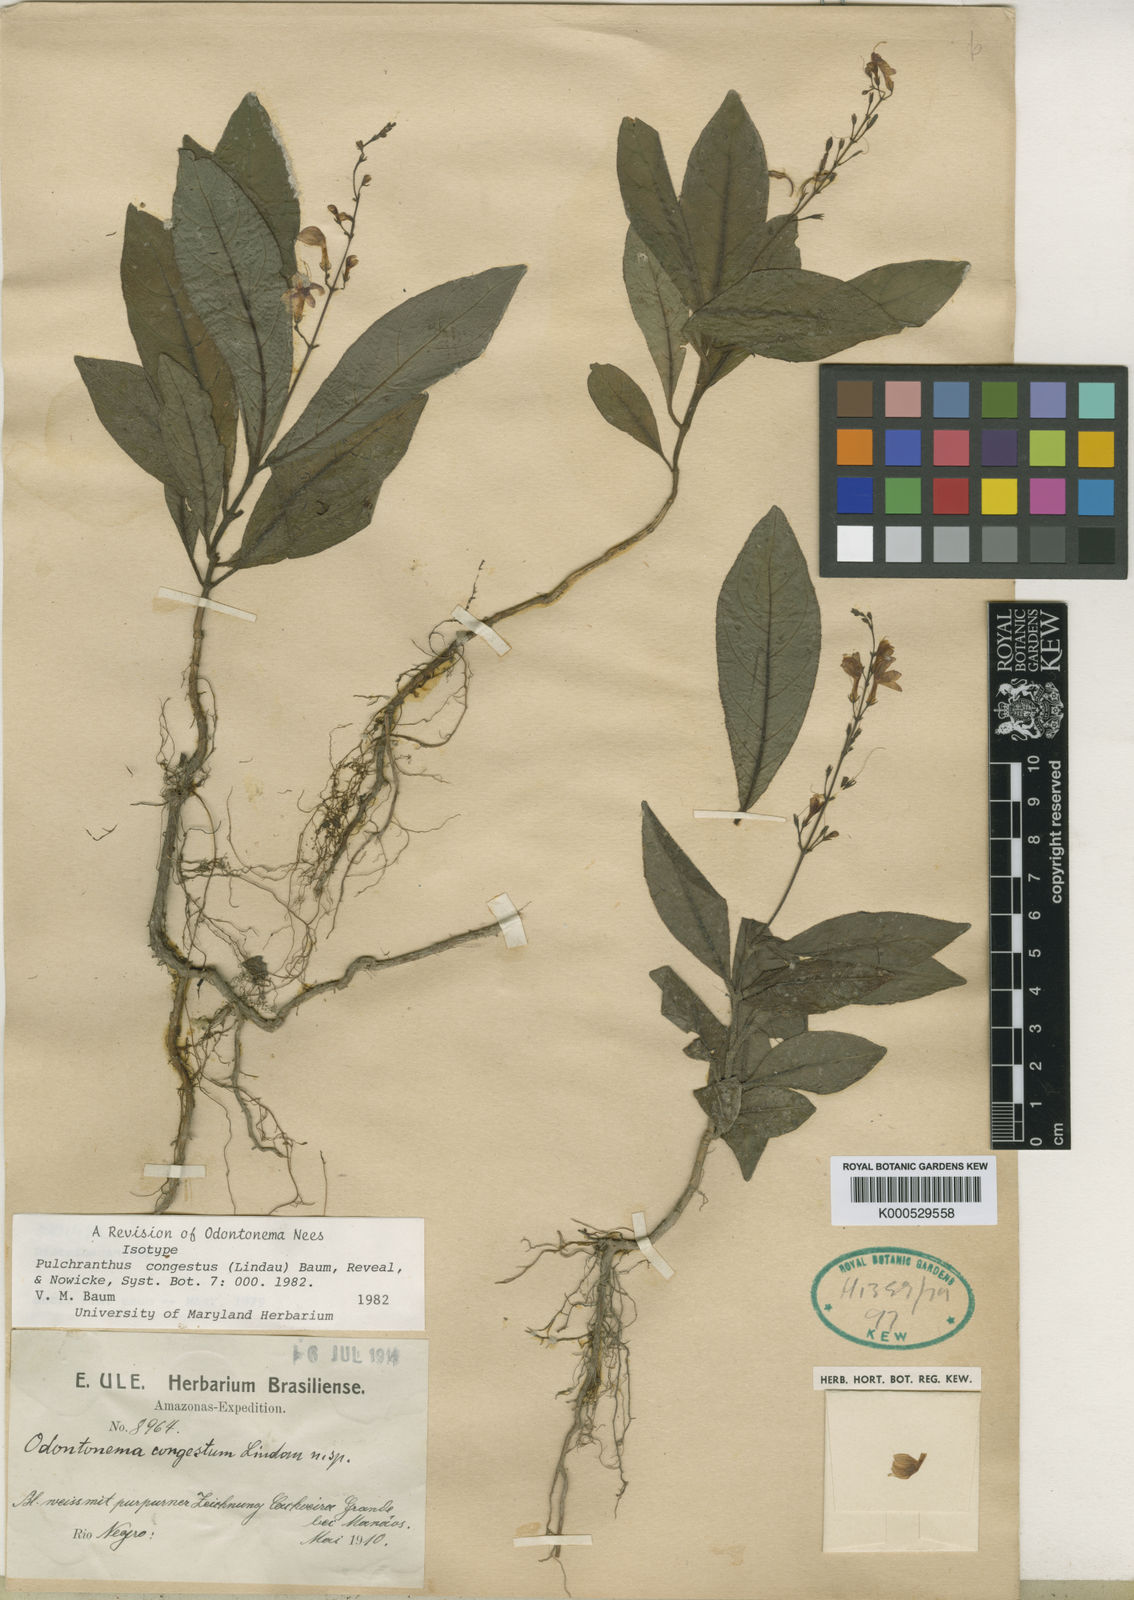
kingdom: Plantae
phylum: Tracheophyta
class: Magnoliopsida
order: Lamiales
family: Acanthaceae
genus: Pulchranthus
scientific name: Pulchranthus
